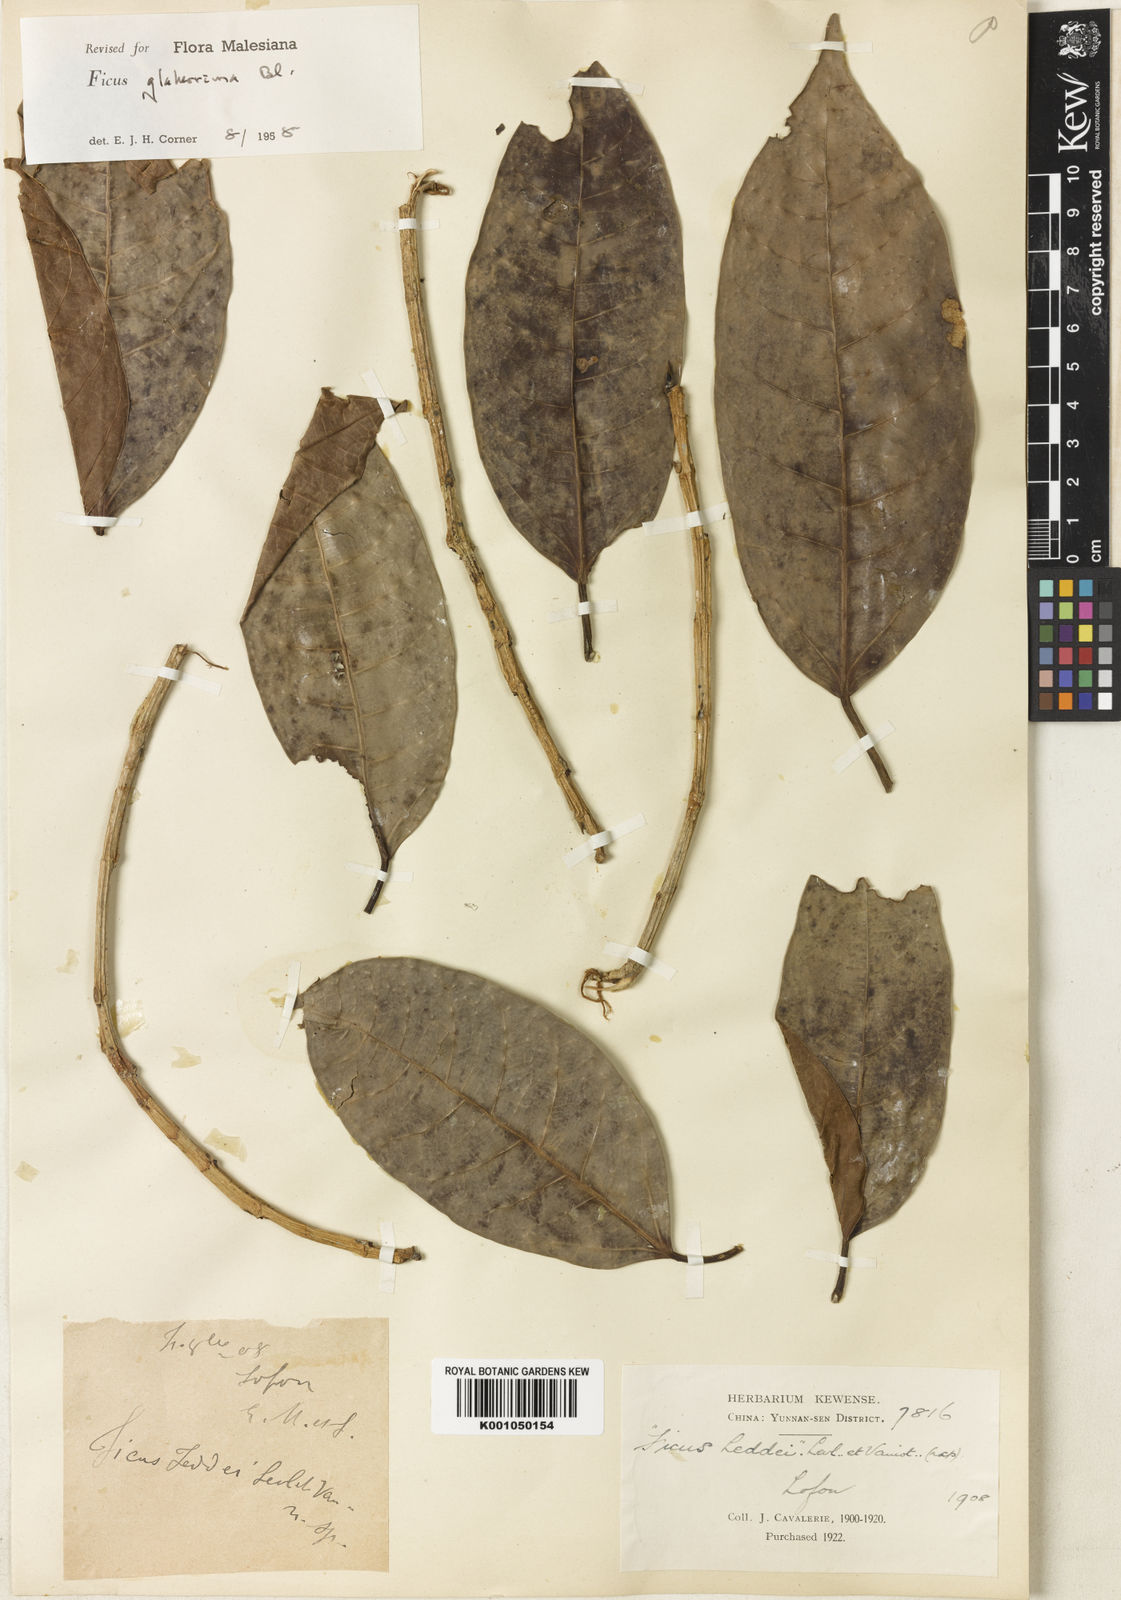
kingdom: Plantae
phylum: Tracheophyta
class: Magnoliopsida
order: Rosales
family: Moraceae
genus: Ficus
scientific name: Ficus glaberrima
